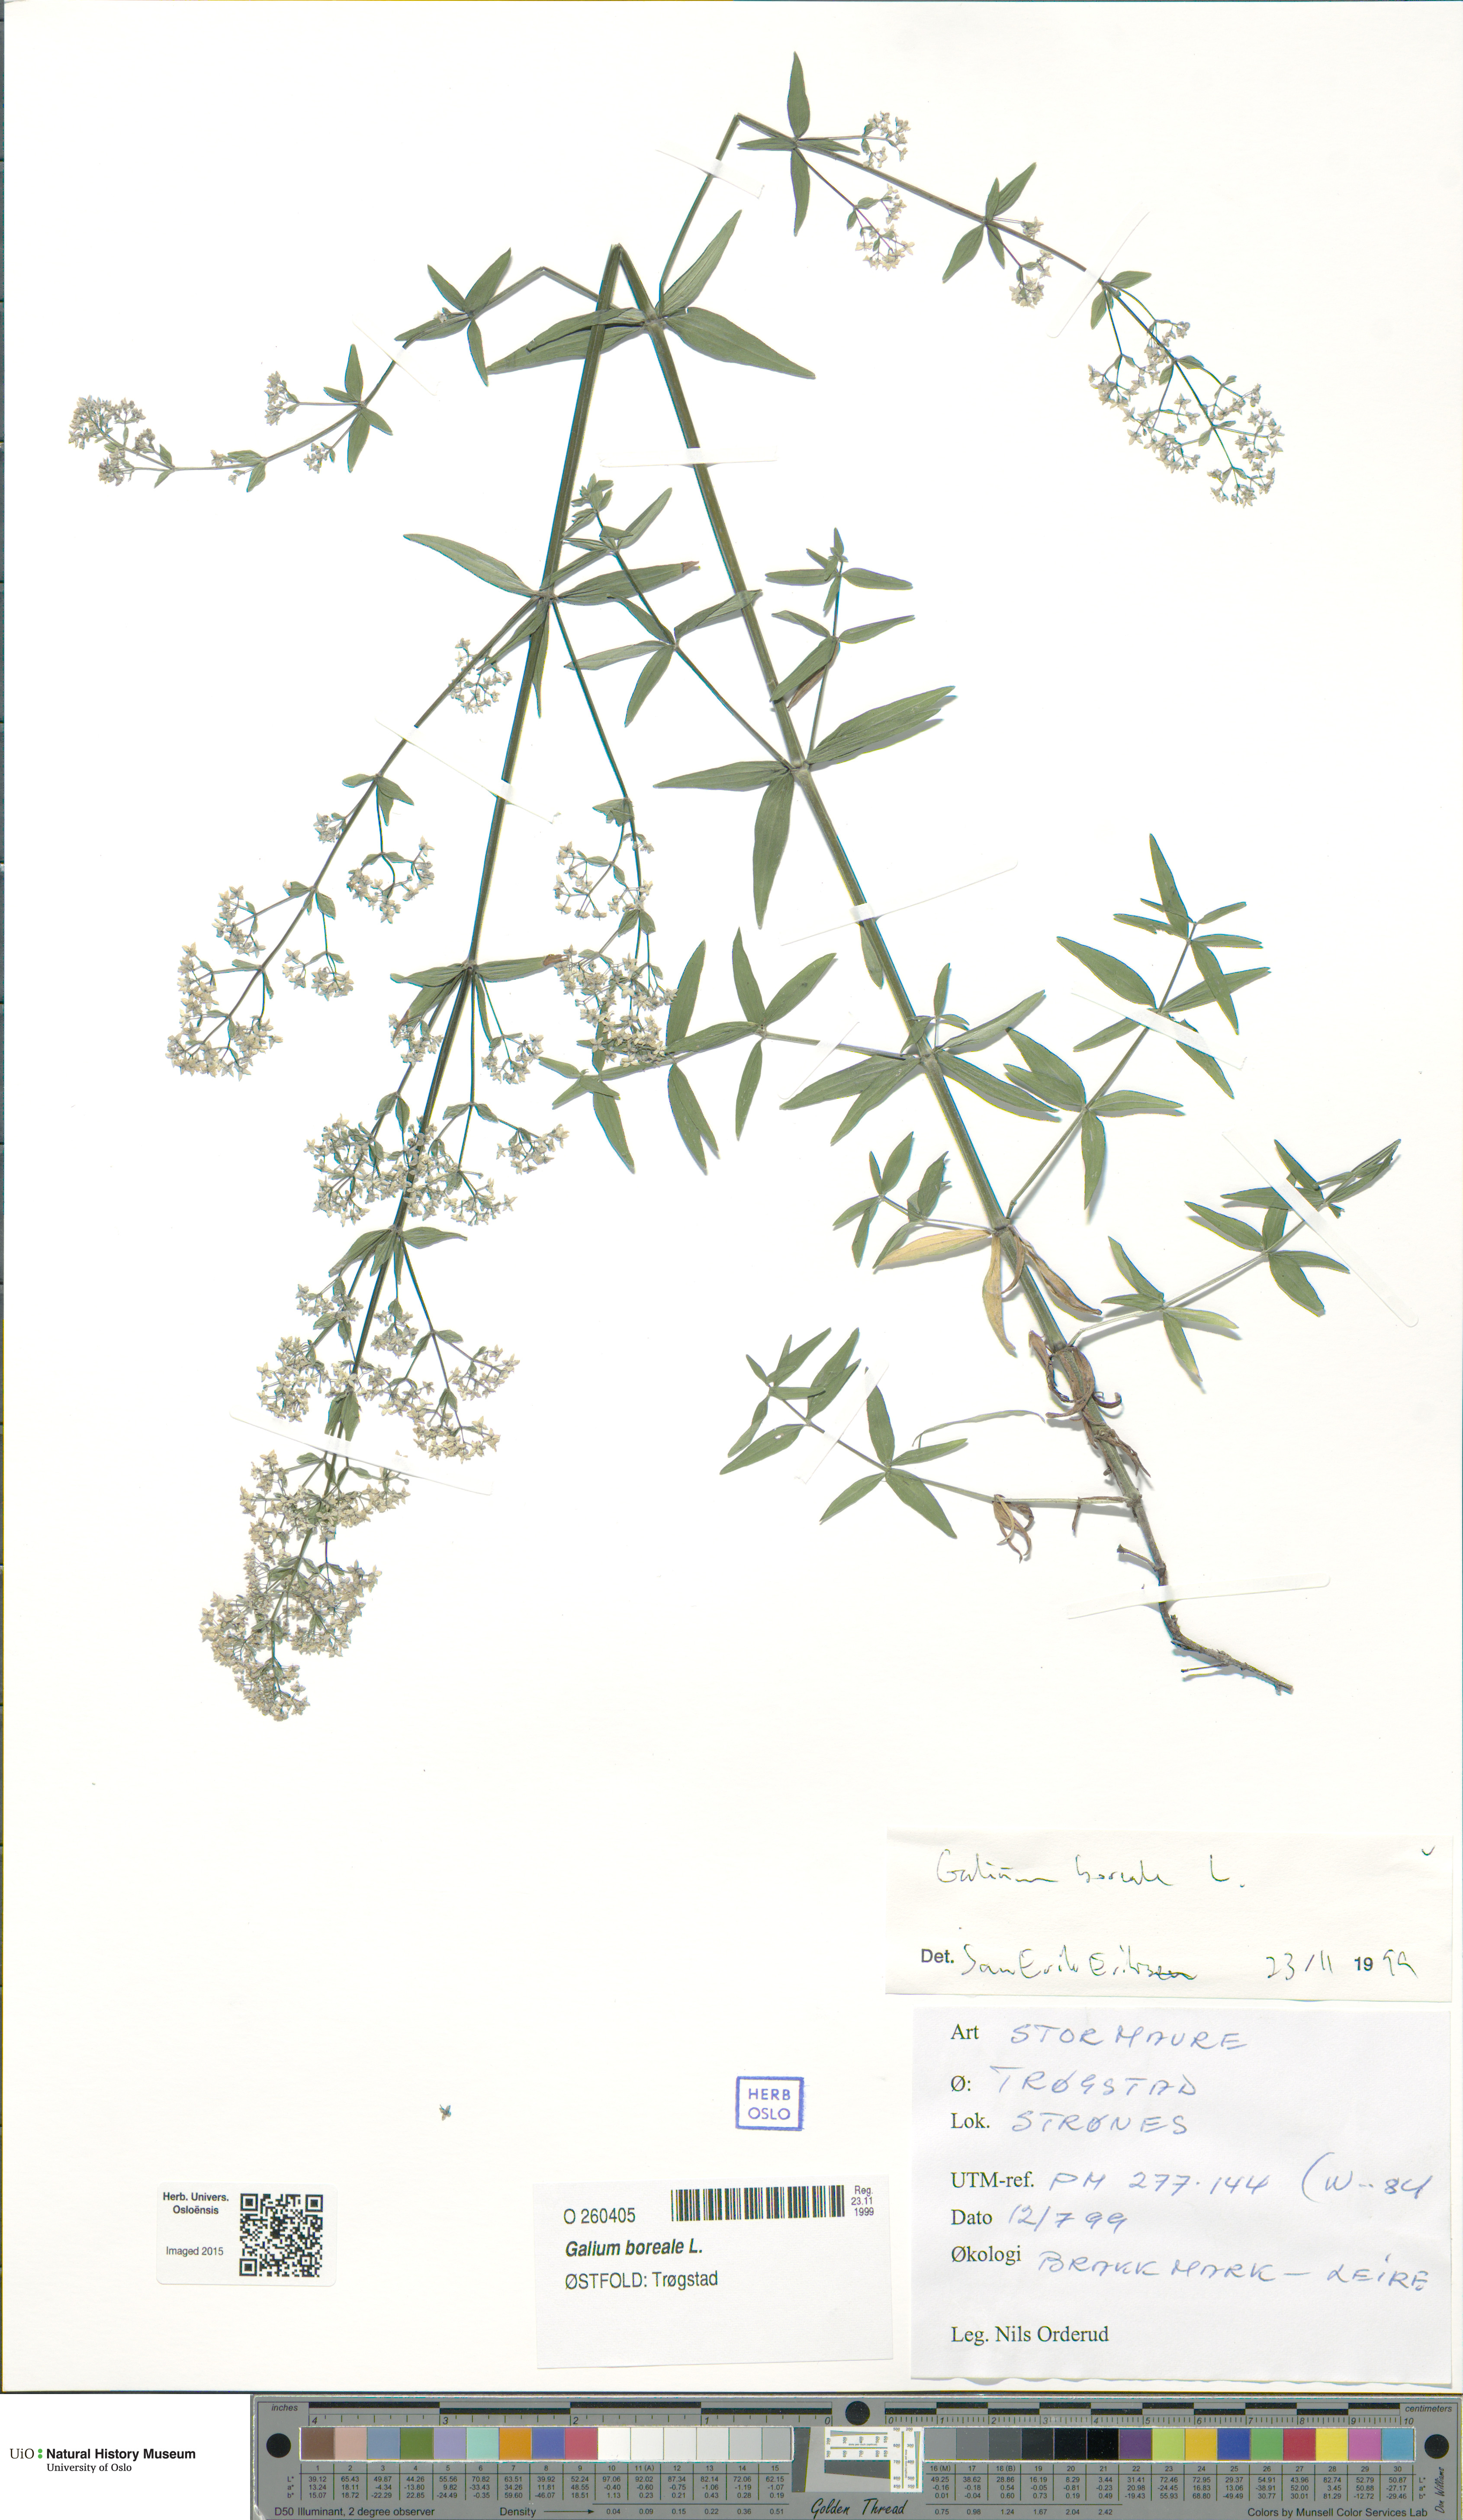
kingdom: Plantae
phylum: Tracheophyta
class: Magnoliopsida
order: Gentianales
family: Rubiaceae
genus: Galium
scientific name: Galium boreale
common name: Northern bedstraw
